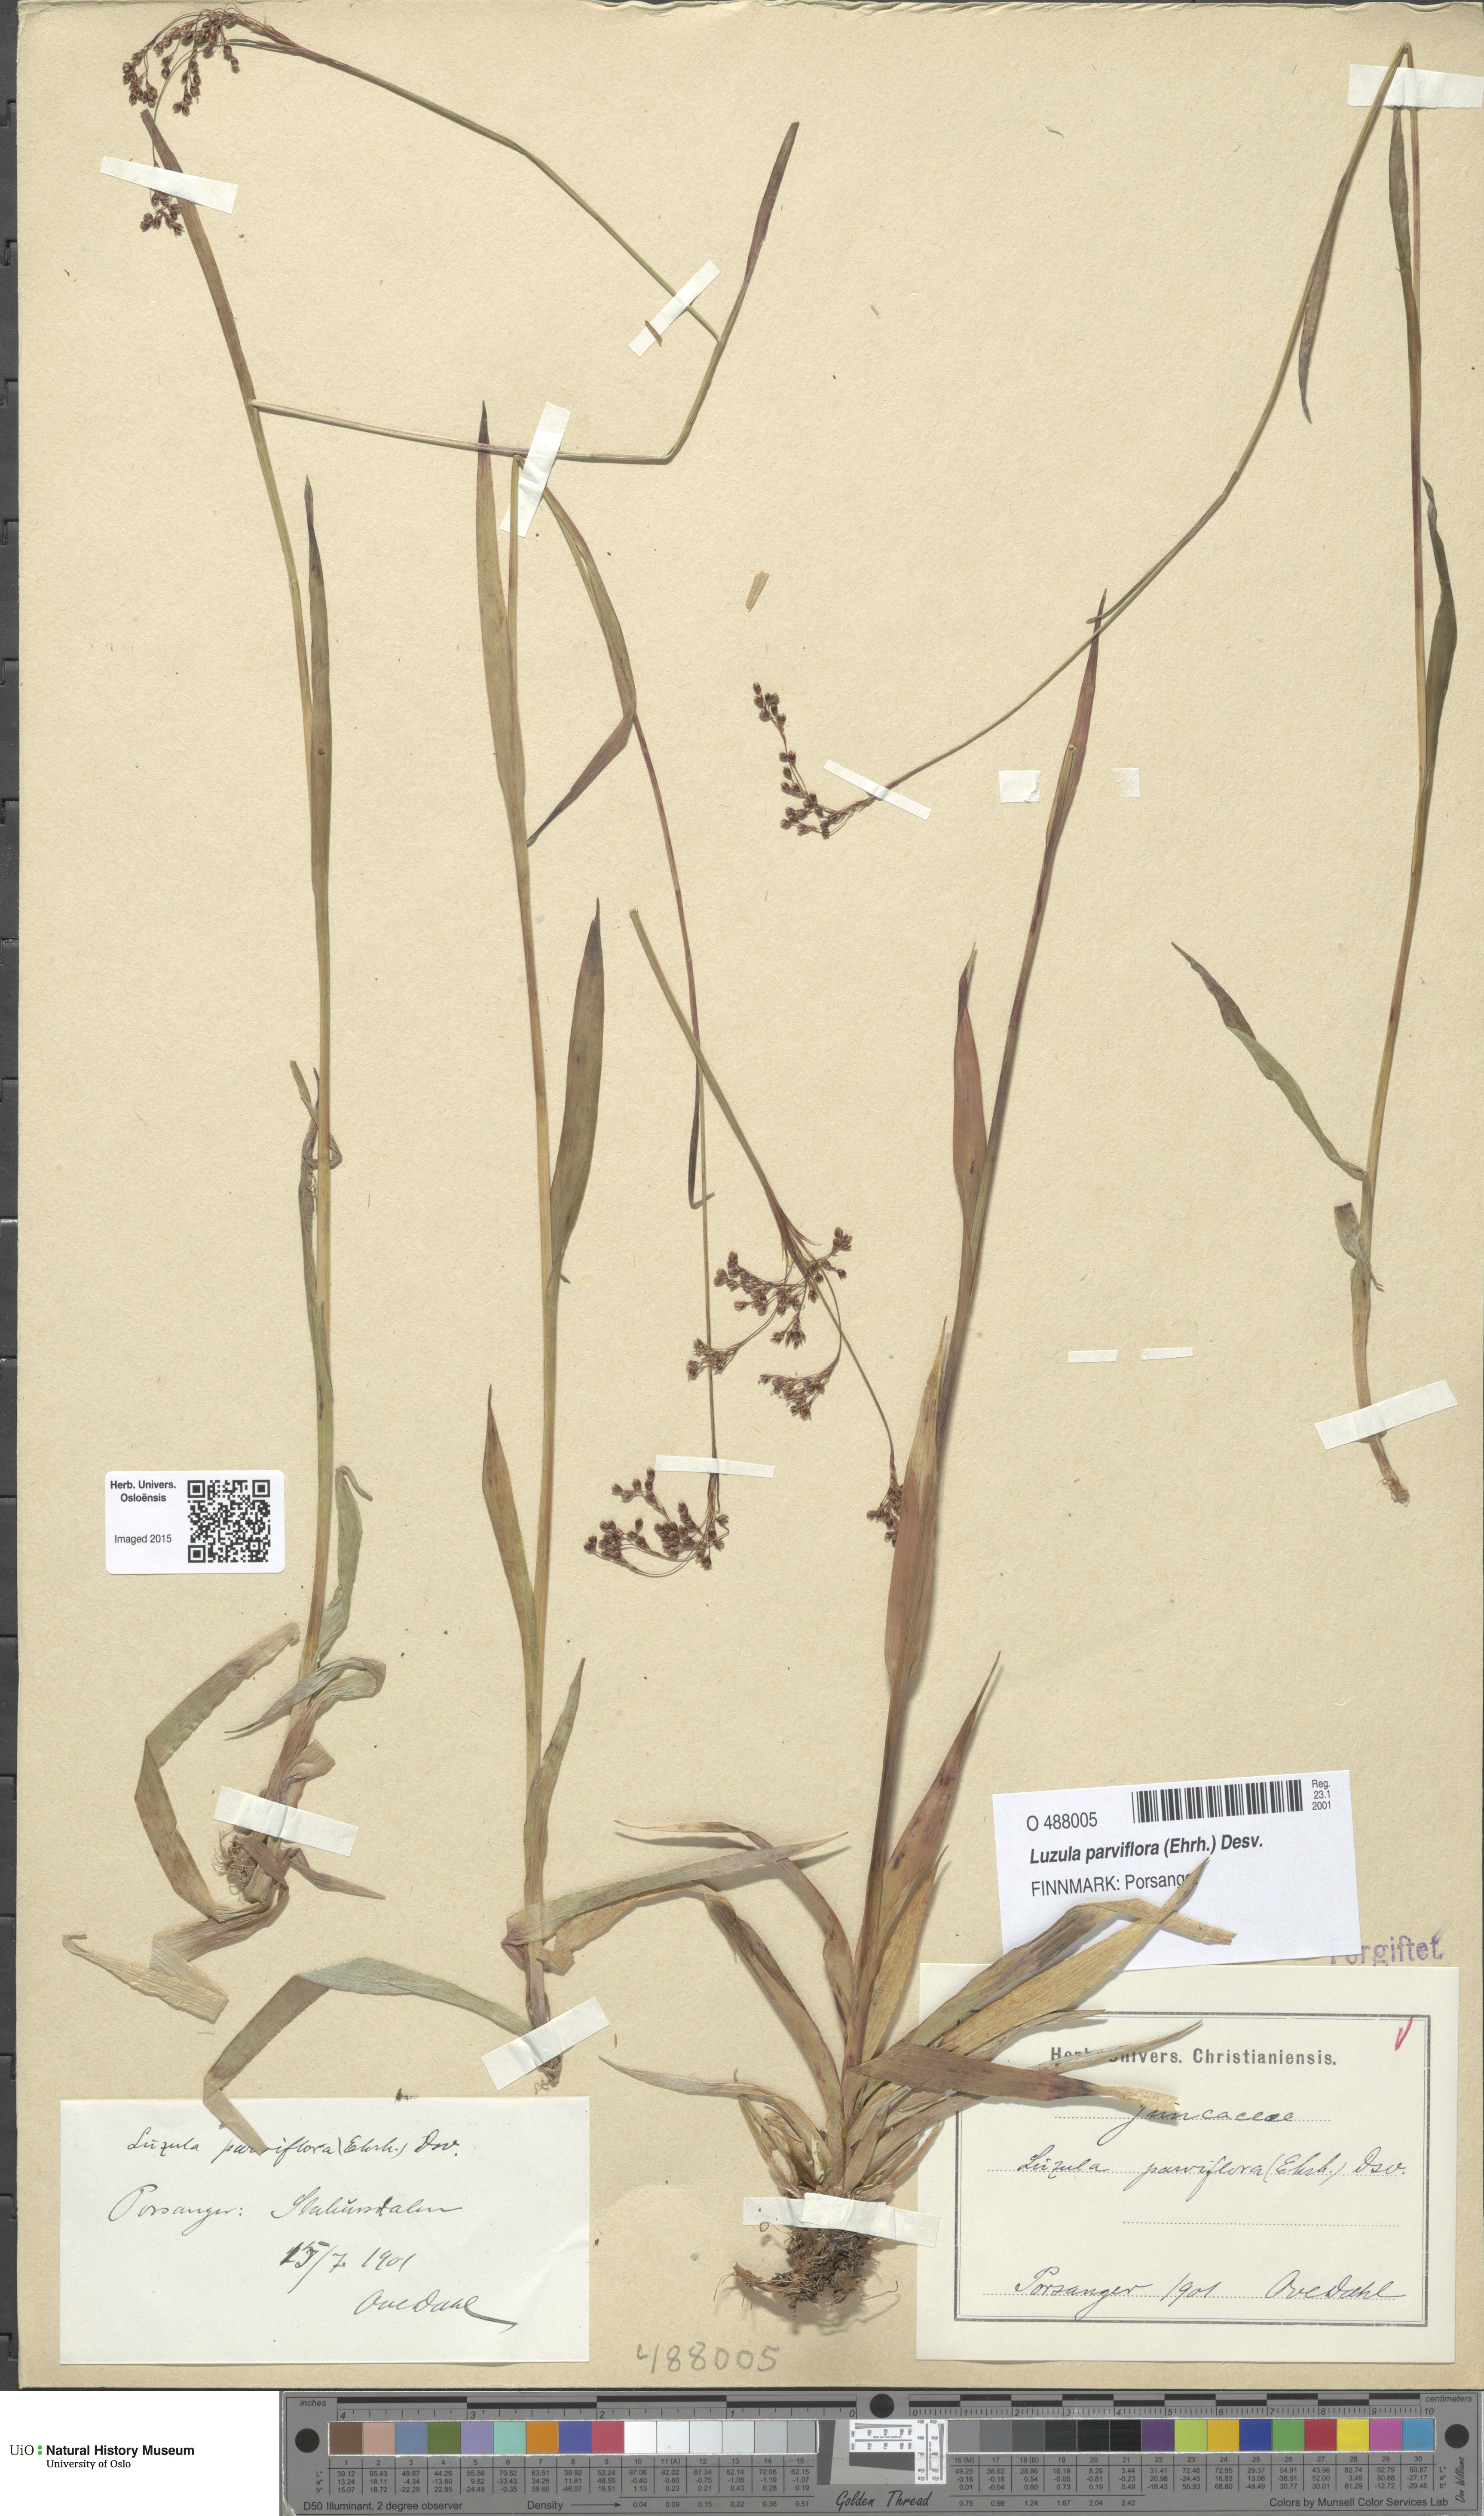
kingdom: Plantae
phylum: Tracheophyta
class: Liliopsida
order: Poales
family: Juncaceae
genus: Luzula
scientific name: Luzula parviflora
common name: Millet woodrush
